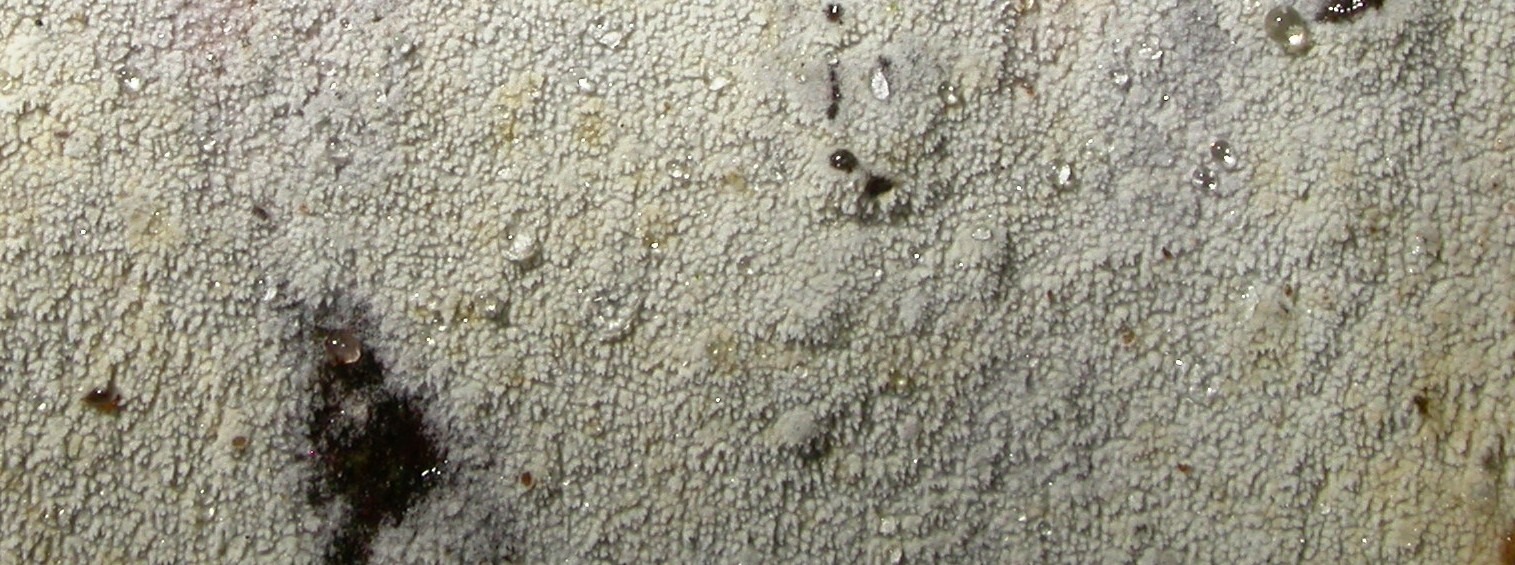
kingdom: Fungi
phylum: Basidiomycota
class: Agaricomycetes
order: Hymenochaetales
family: Schizoporaceae
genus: Xylodon
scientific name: Xylodon nesporii
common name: fintandet tandsvamp
